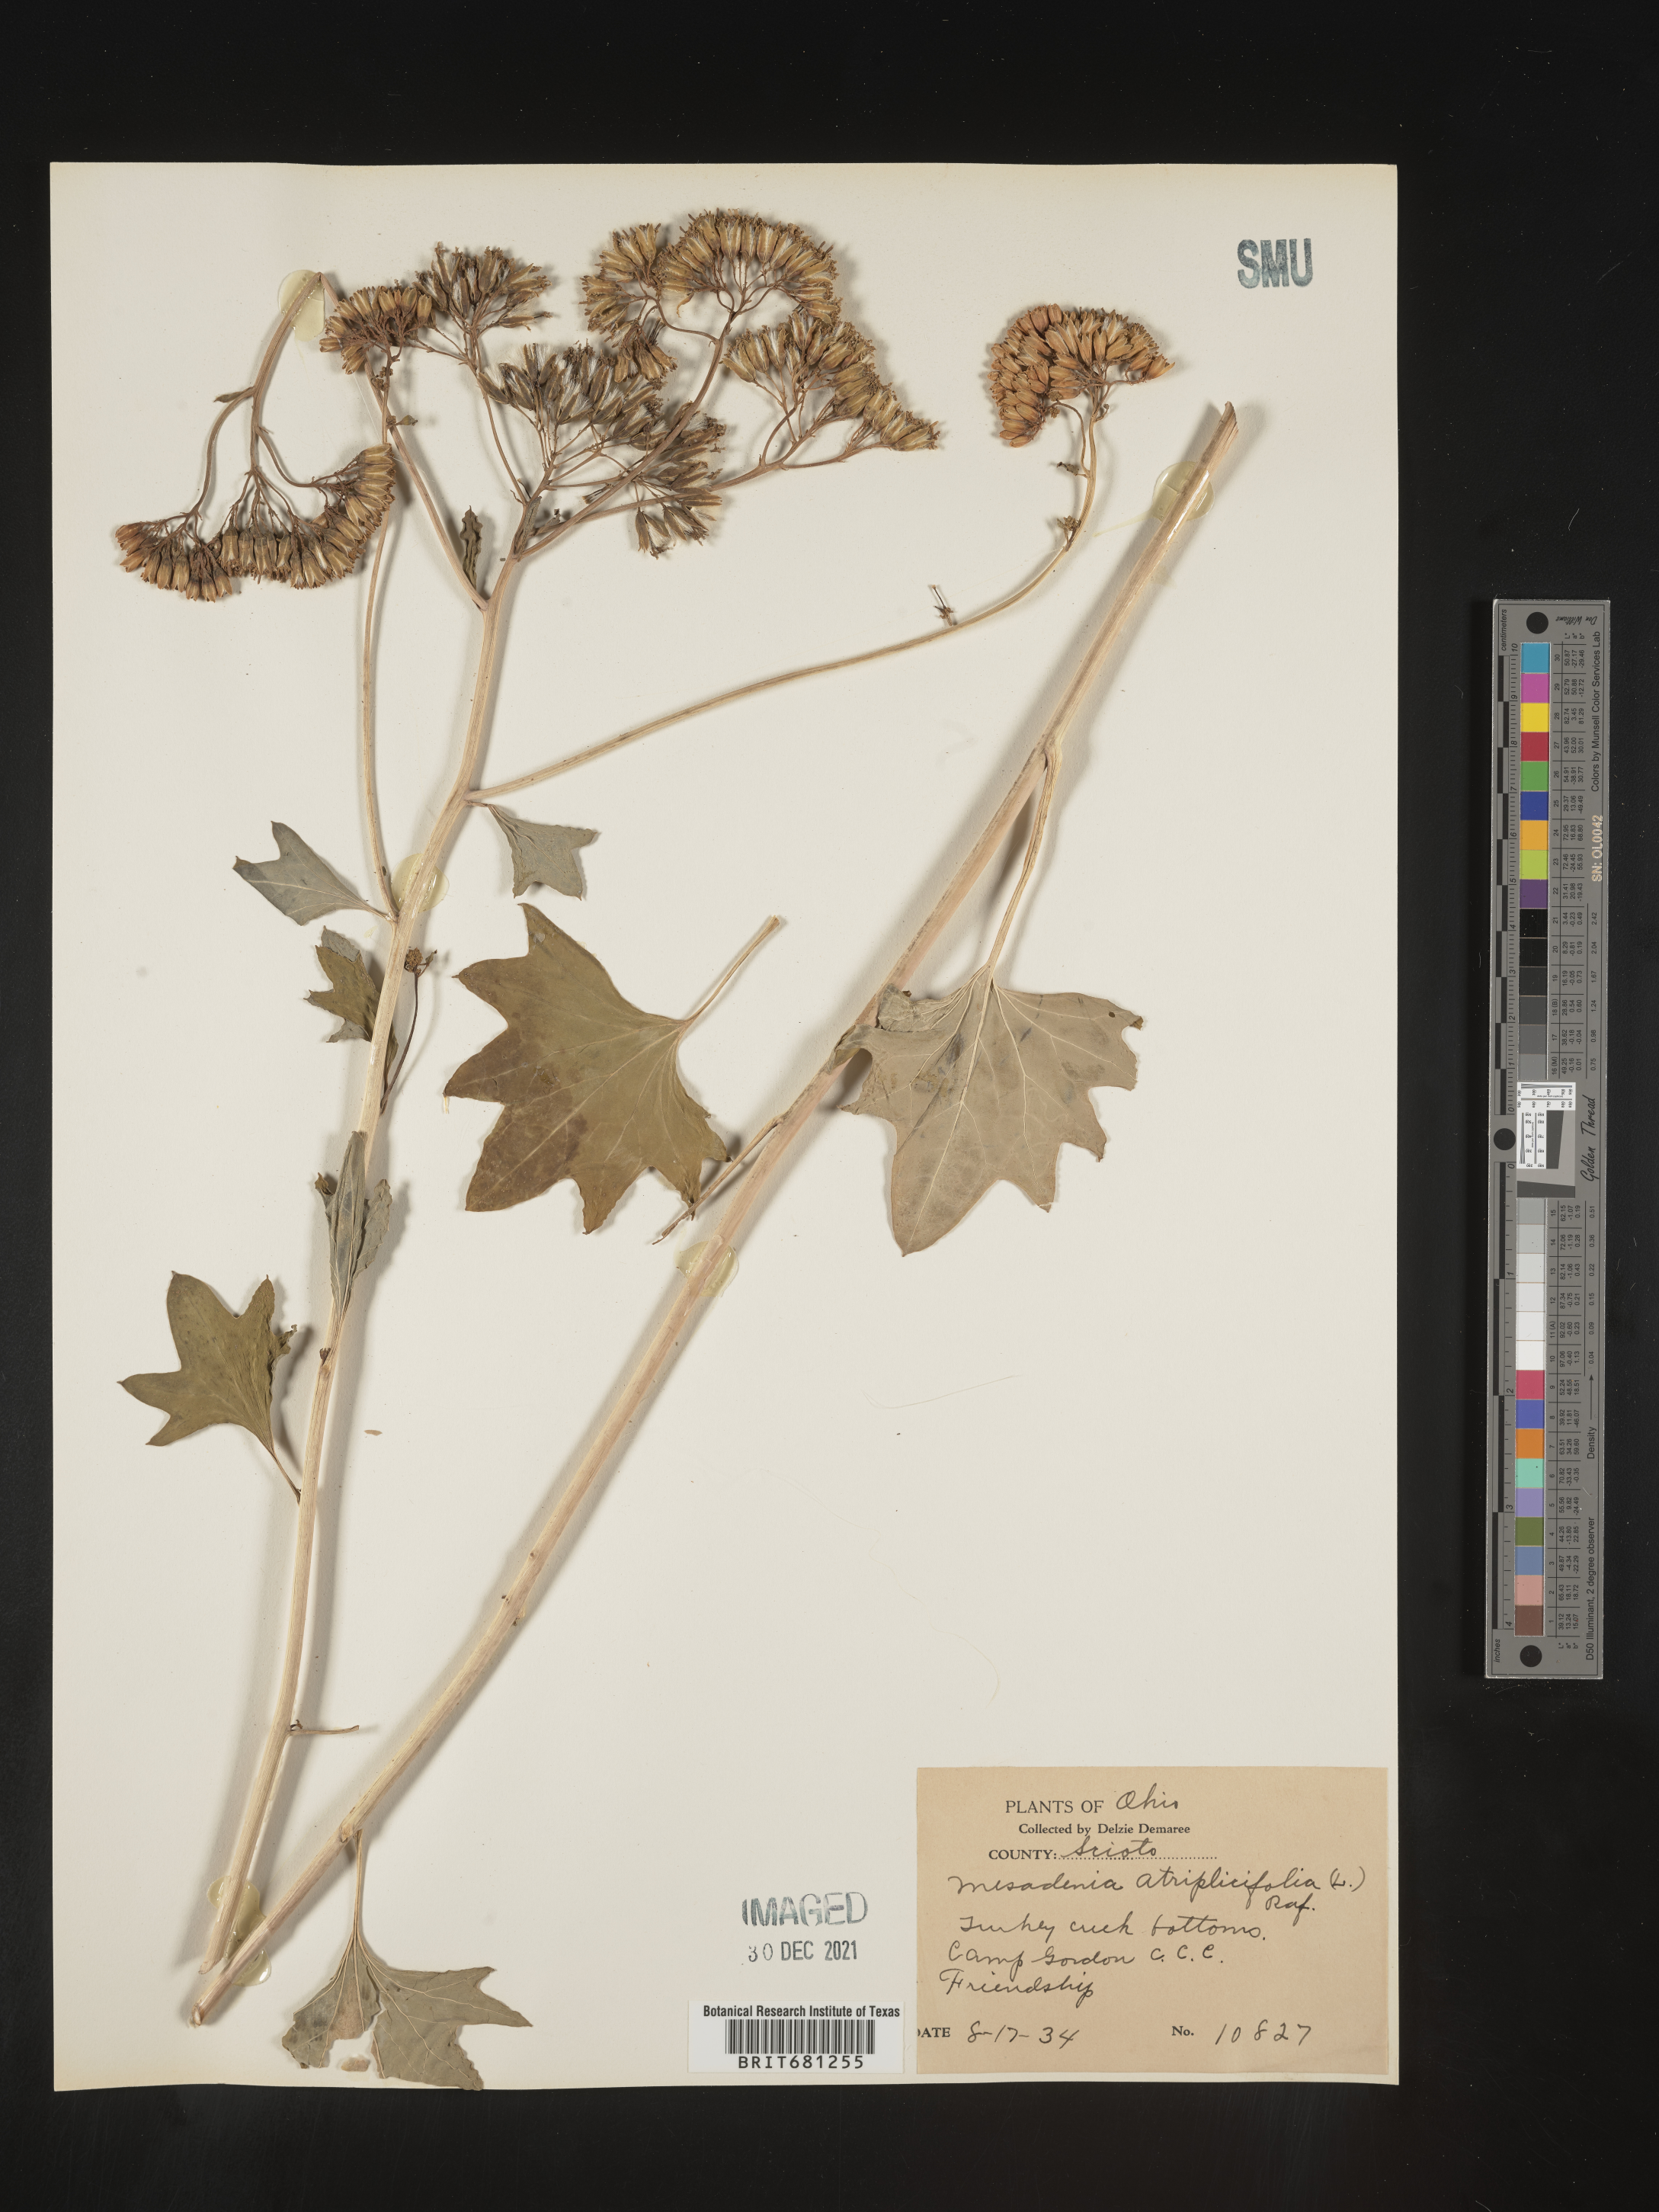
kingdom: Plantae
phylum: Tracheophyta
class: Magnoliopsida
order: Asterales
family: Asteraceae
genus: Arnoglossum
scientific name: Arnoglossum atriplicifolium
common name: Pale indian-plantain
